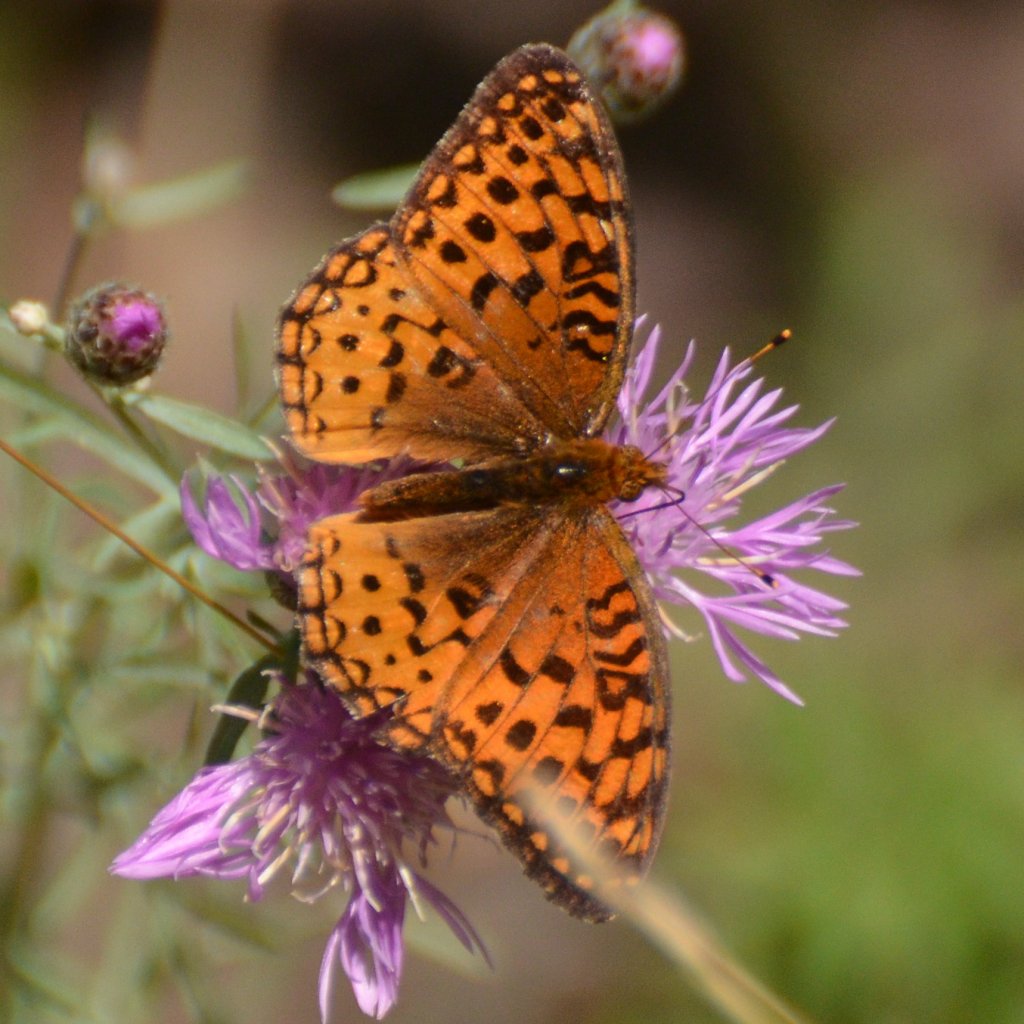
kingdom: Animalia
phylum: Arthropoda
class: Insecta
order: Lepidoptera
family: Nymphalidae
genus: Speyeria
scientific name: Speyeria aphrodite
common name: Aphrodite Fritillary
